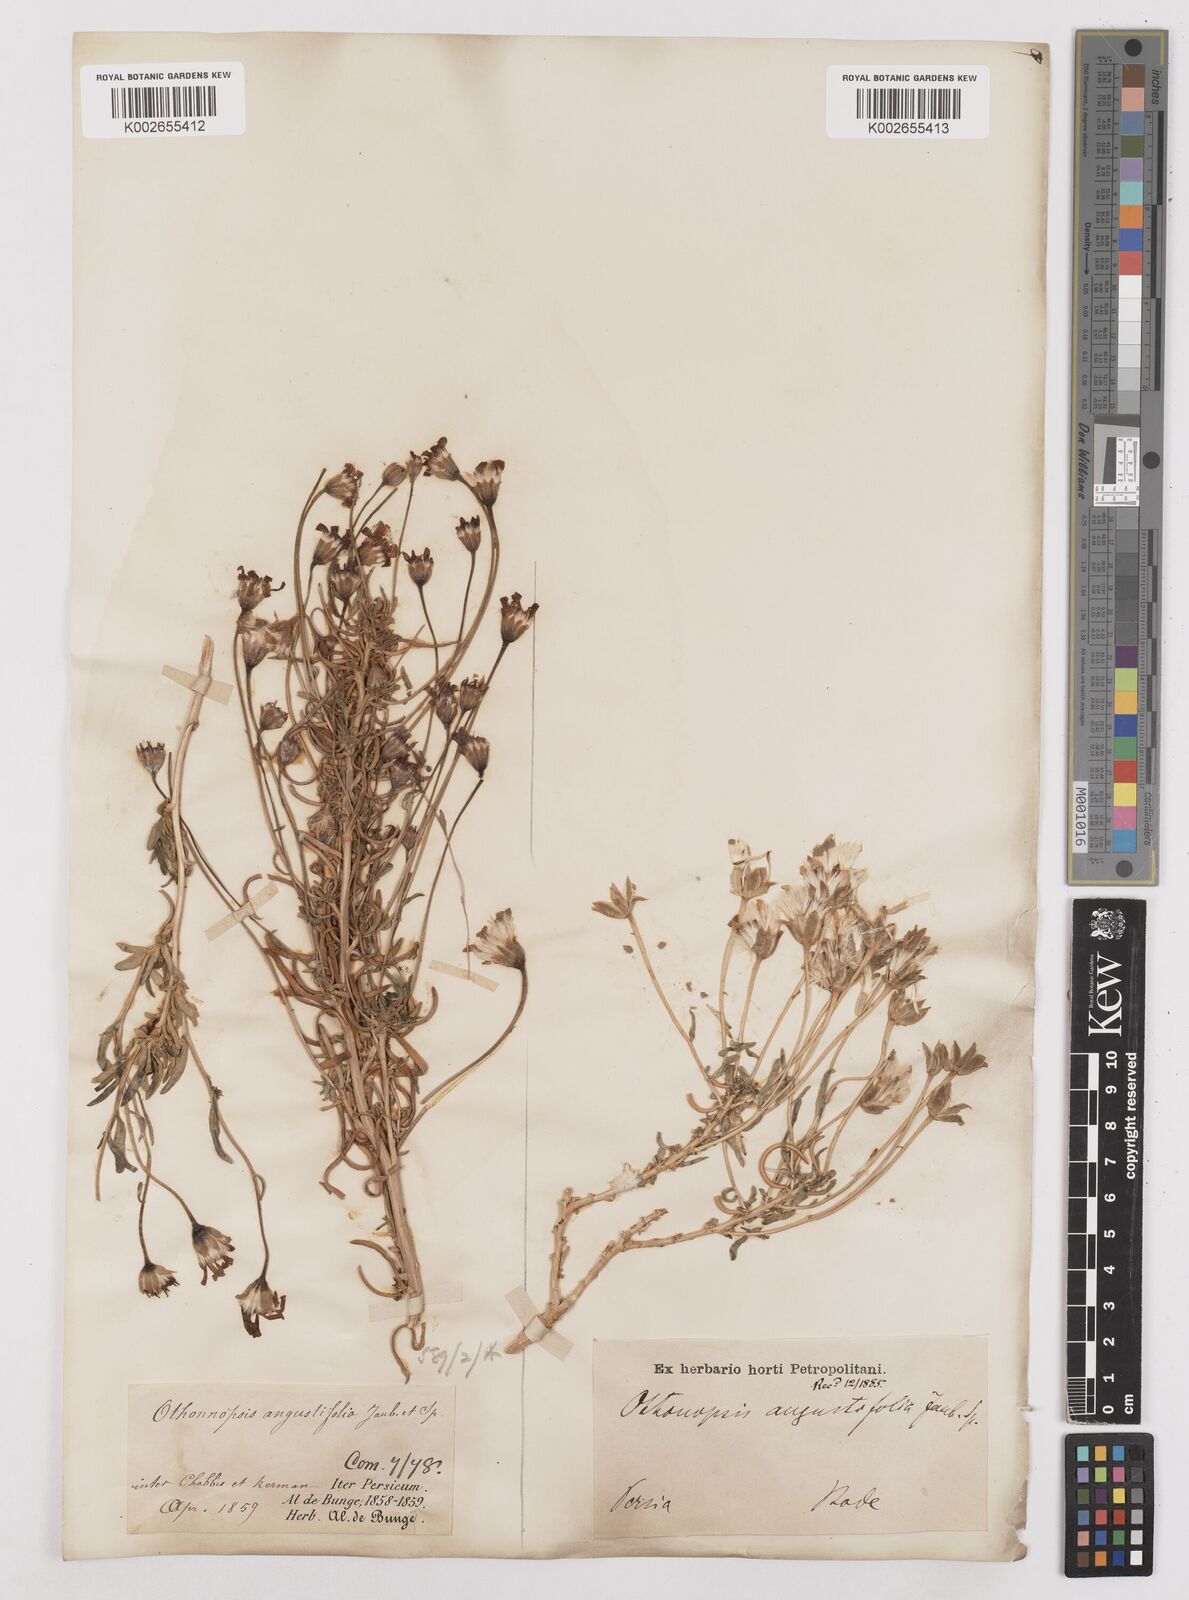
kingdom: Plantae
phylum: Tracheophyta
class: Magnoliopsida
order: Asterales
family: Asteraceae
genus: Hertia
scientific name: Hertia angustifolia
